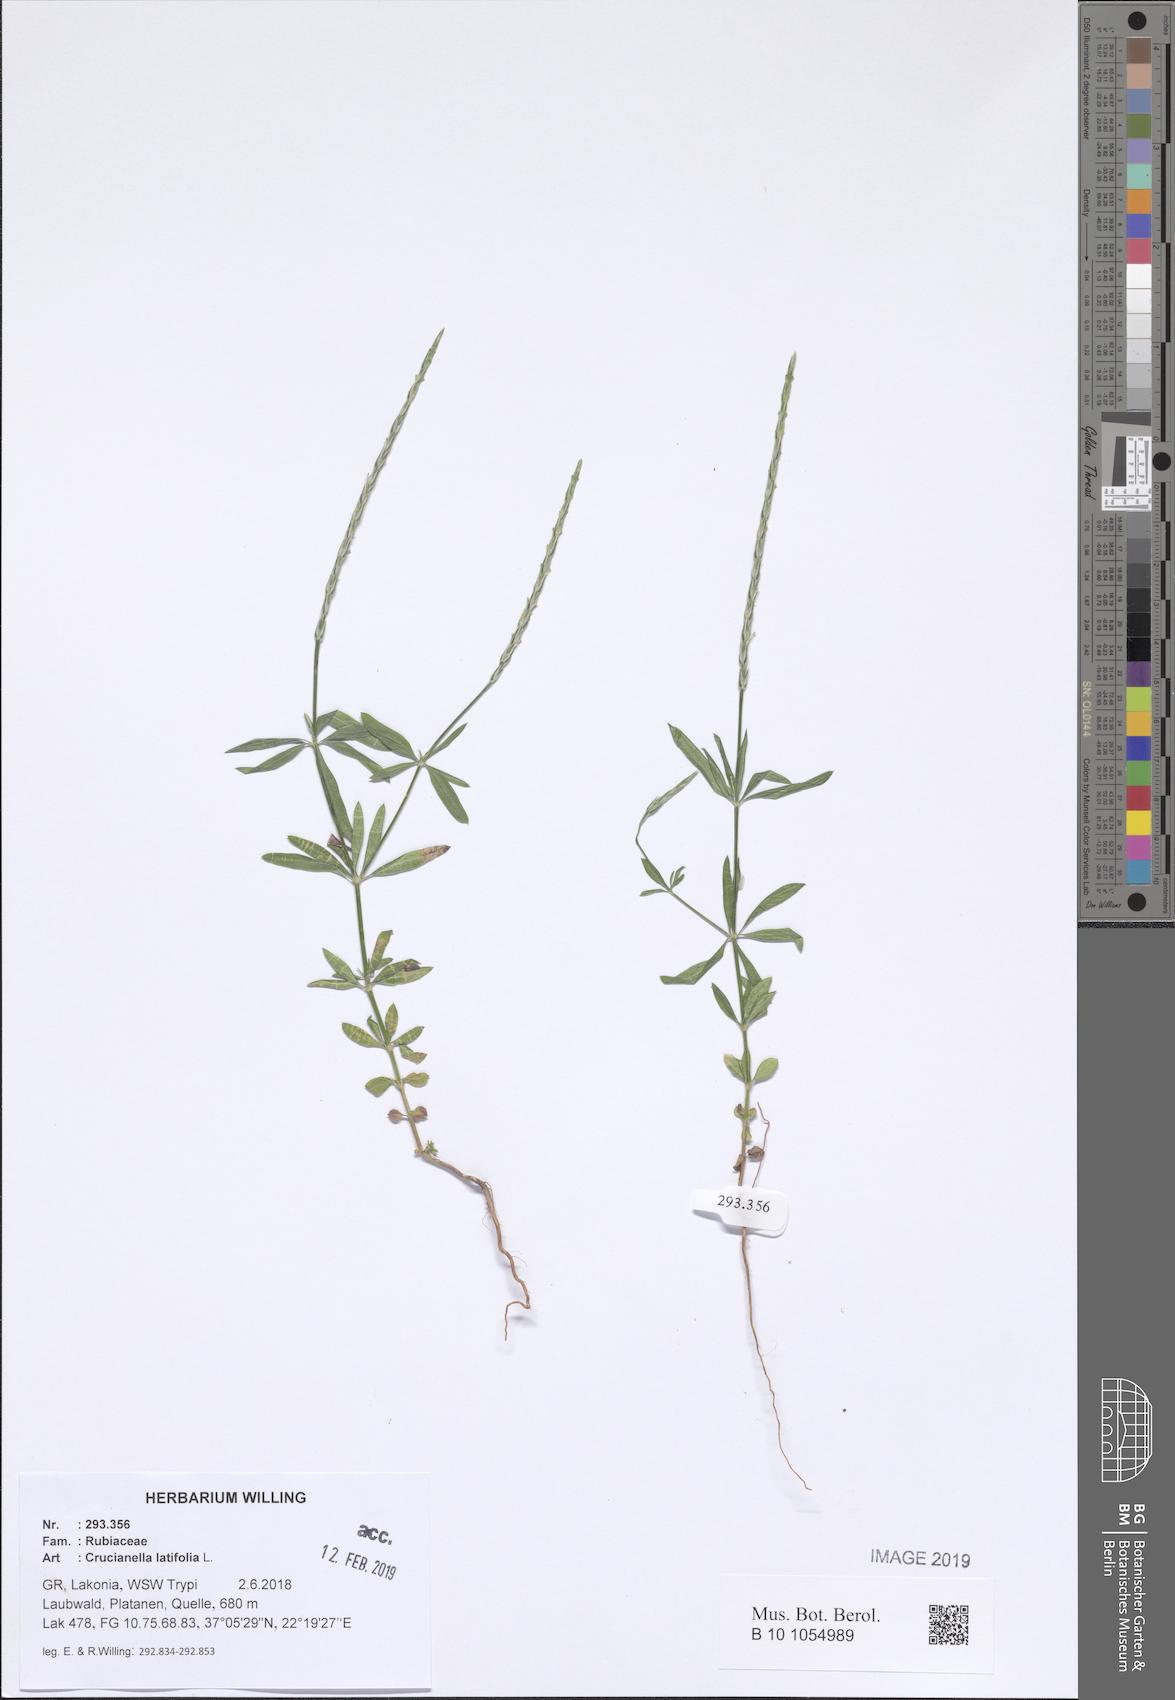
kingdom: Plantae
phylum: Tracheophyta
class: Magnoliopsida
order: Gentianales
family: Rubiaceae
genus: Crucianella
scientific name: Crucianella latifolia
